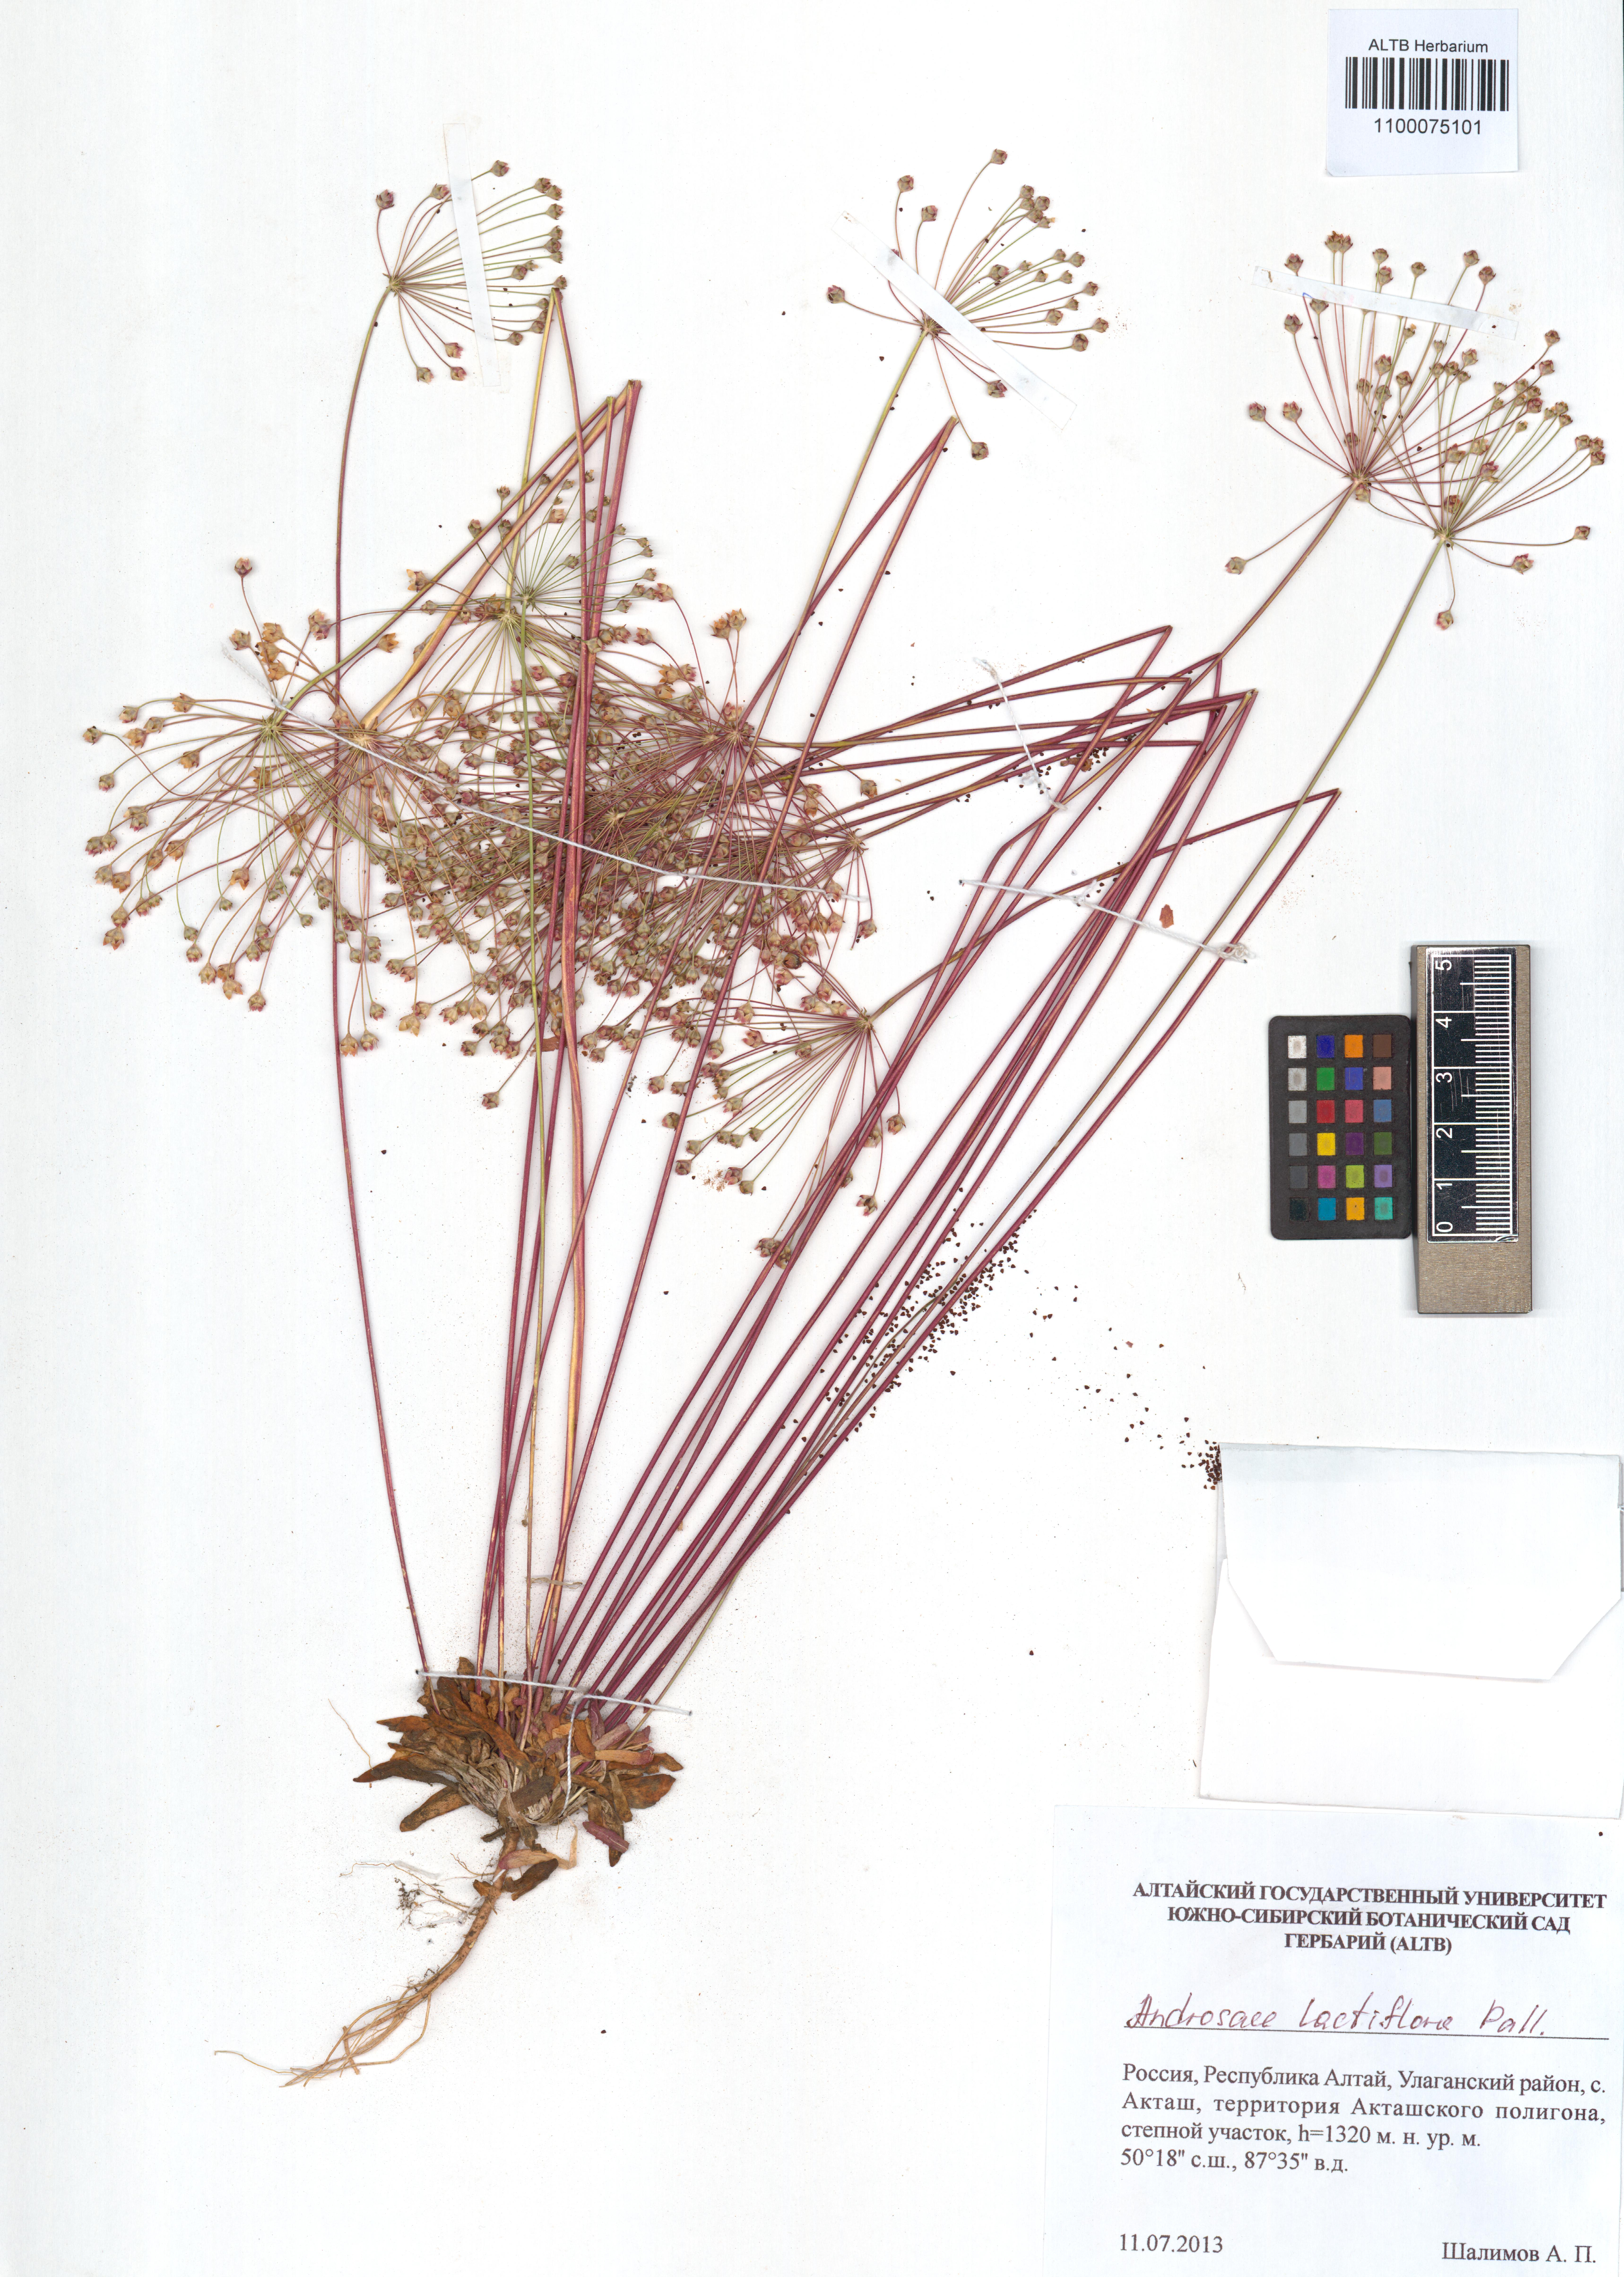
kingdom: Plantae
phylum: Tracheophyta
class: Magnoliopsida
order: Ericales
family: Primulaceae
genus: Androsace
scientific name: Androsace lactiflora
